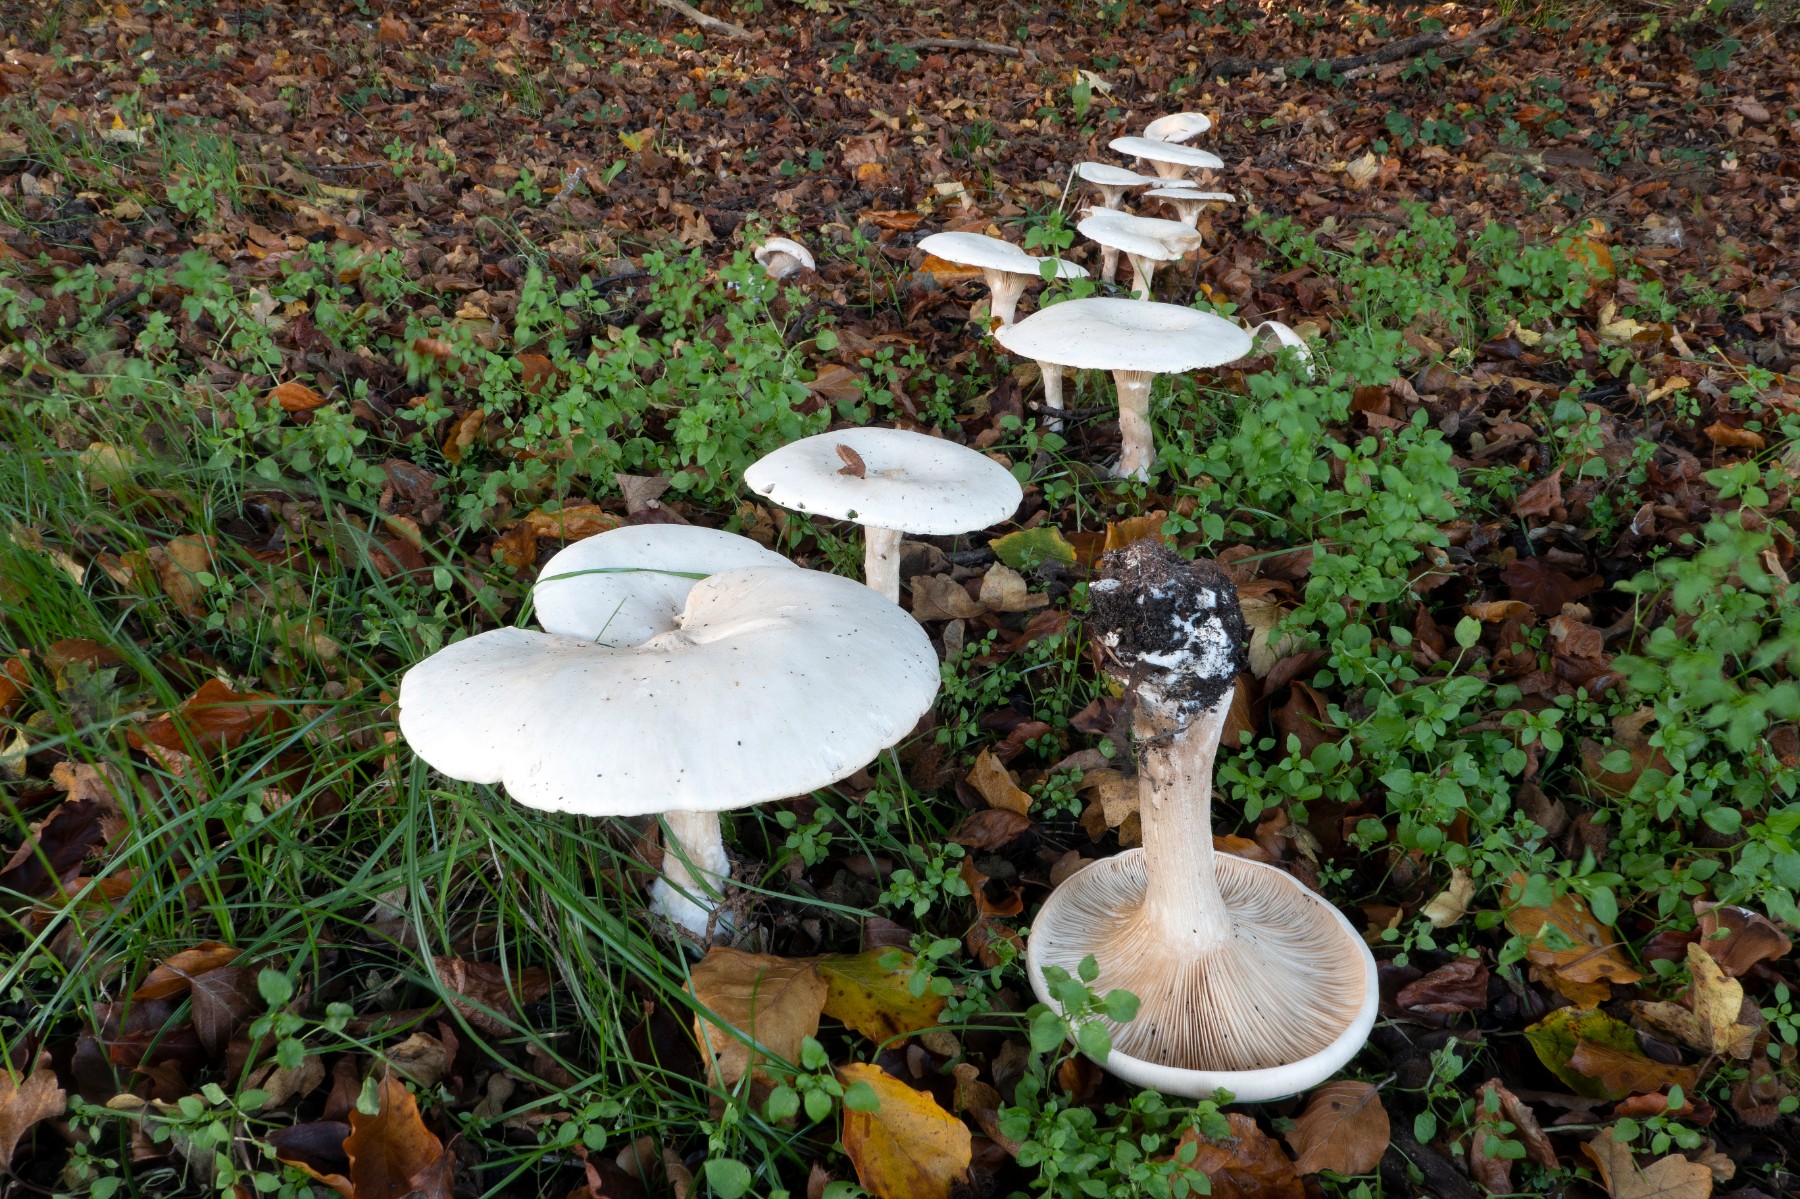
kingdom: Fungi
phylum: Basidiomycota
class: Agaricomycetes
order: Agaricales
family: Tricholomataceae
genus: Infundibulicybe
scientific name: Infundibulicybe geotropa
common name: stor tragthat
